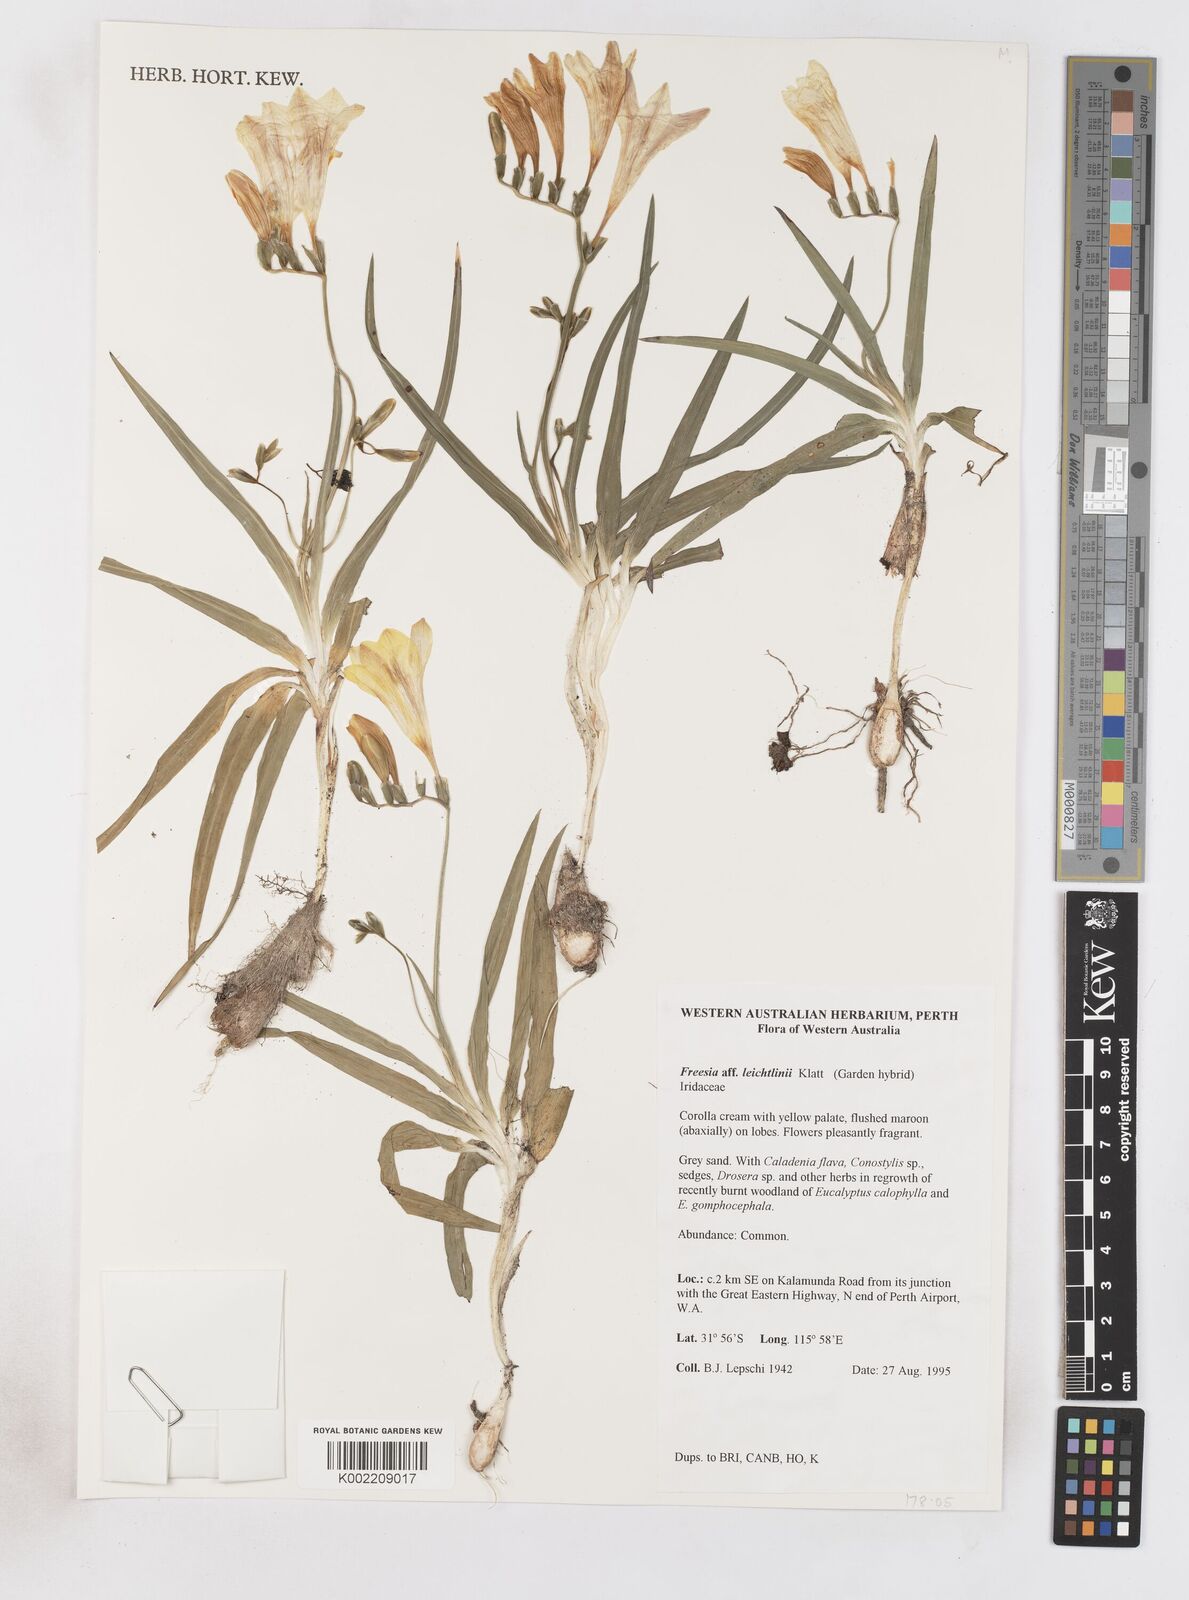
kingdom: Plantae
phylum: Tracheophyta
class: Liliopsida
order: Asparagales
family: Iridaceae
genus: Freesia
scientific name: Freesia leichtlinii
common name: Freesia
